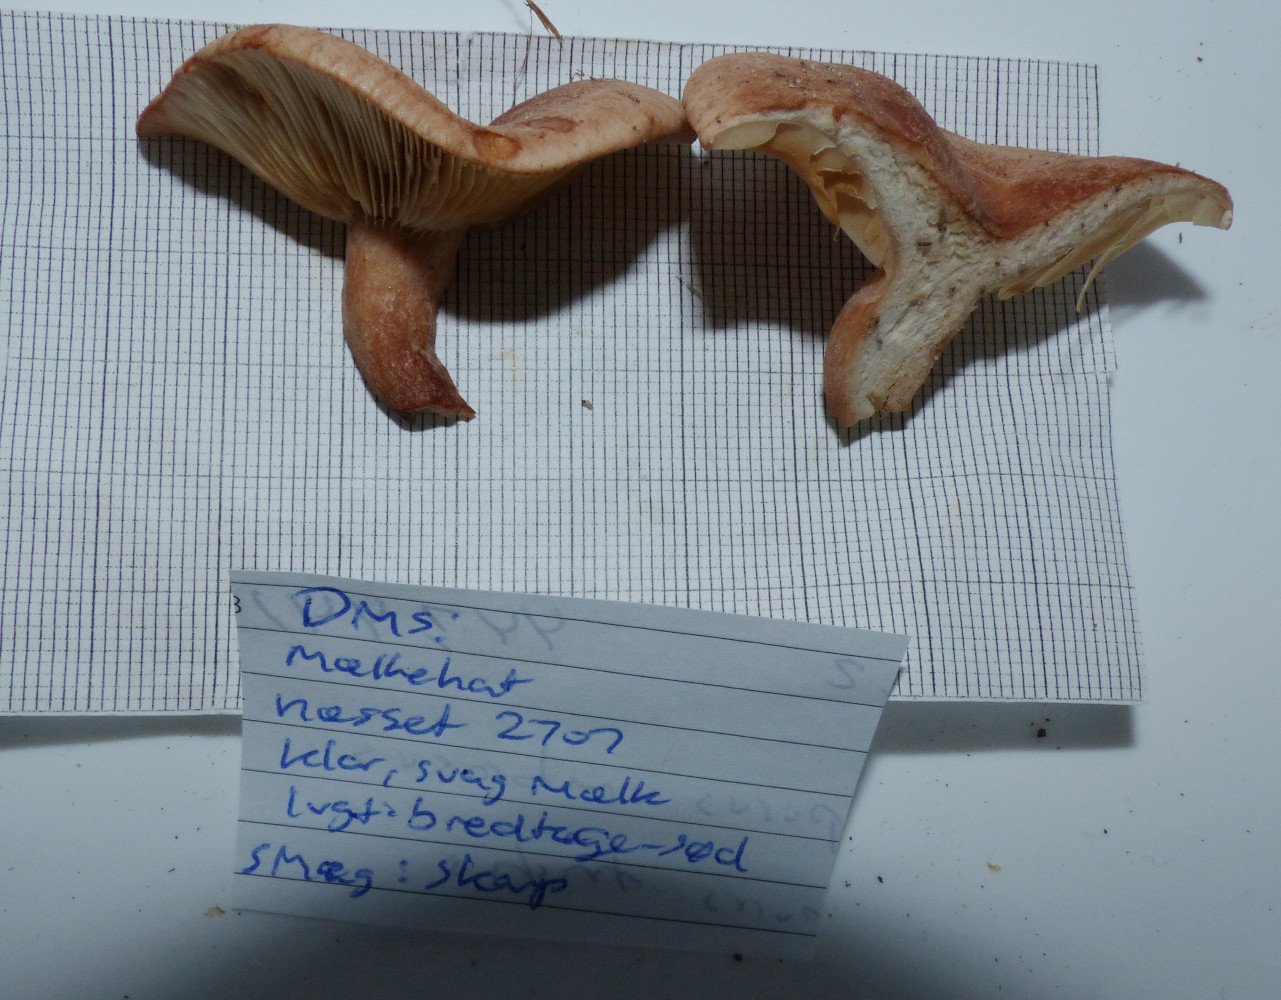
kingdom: Fungi
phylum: Basidiomycota
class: Agaricomycetes
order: Russulales
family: Russulaceae
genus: Lactarius
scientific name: Lactarius quietus
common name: ege-mælkehat
